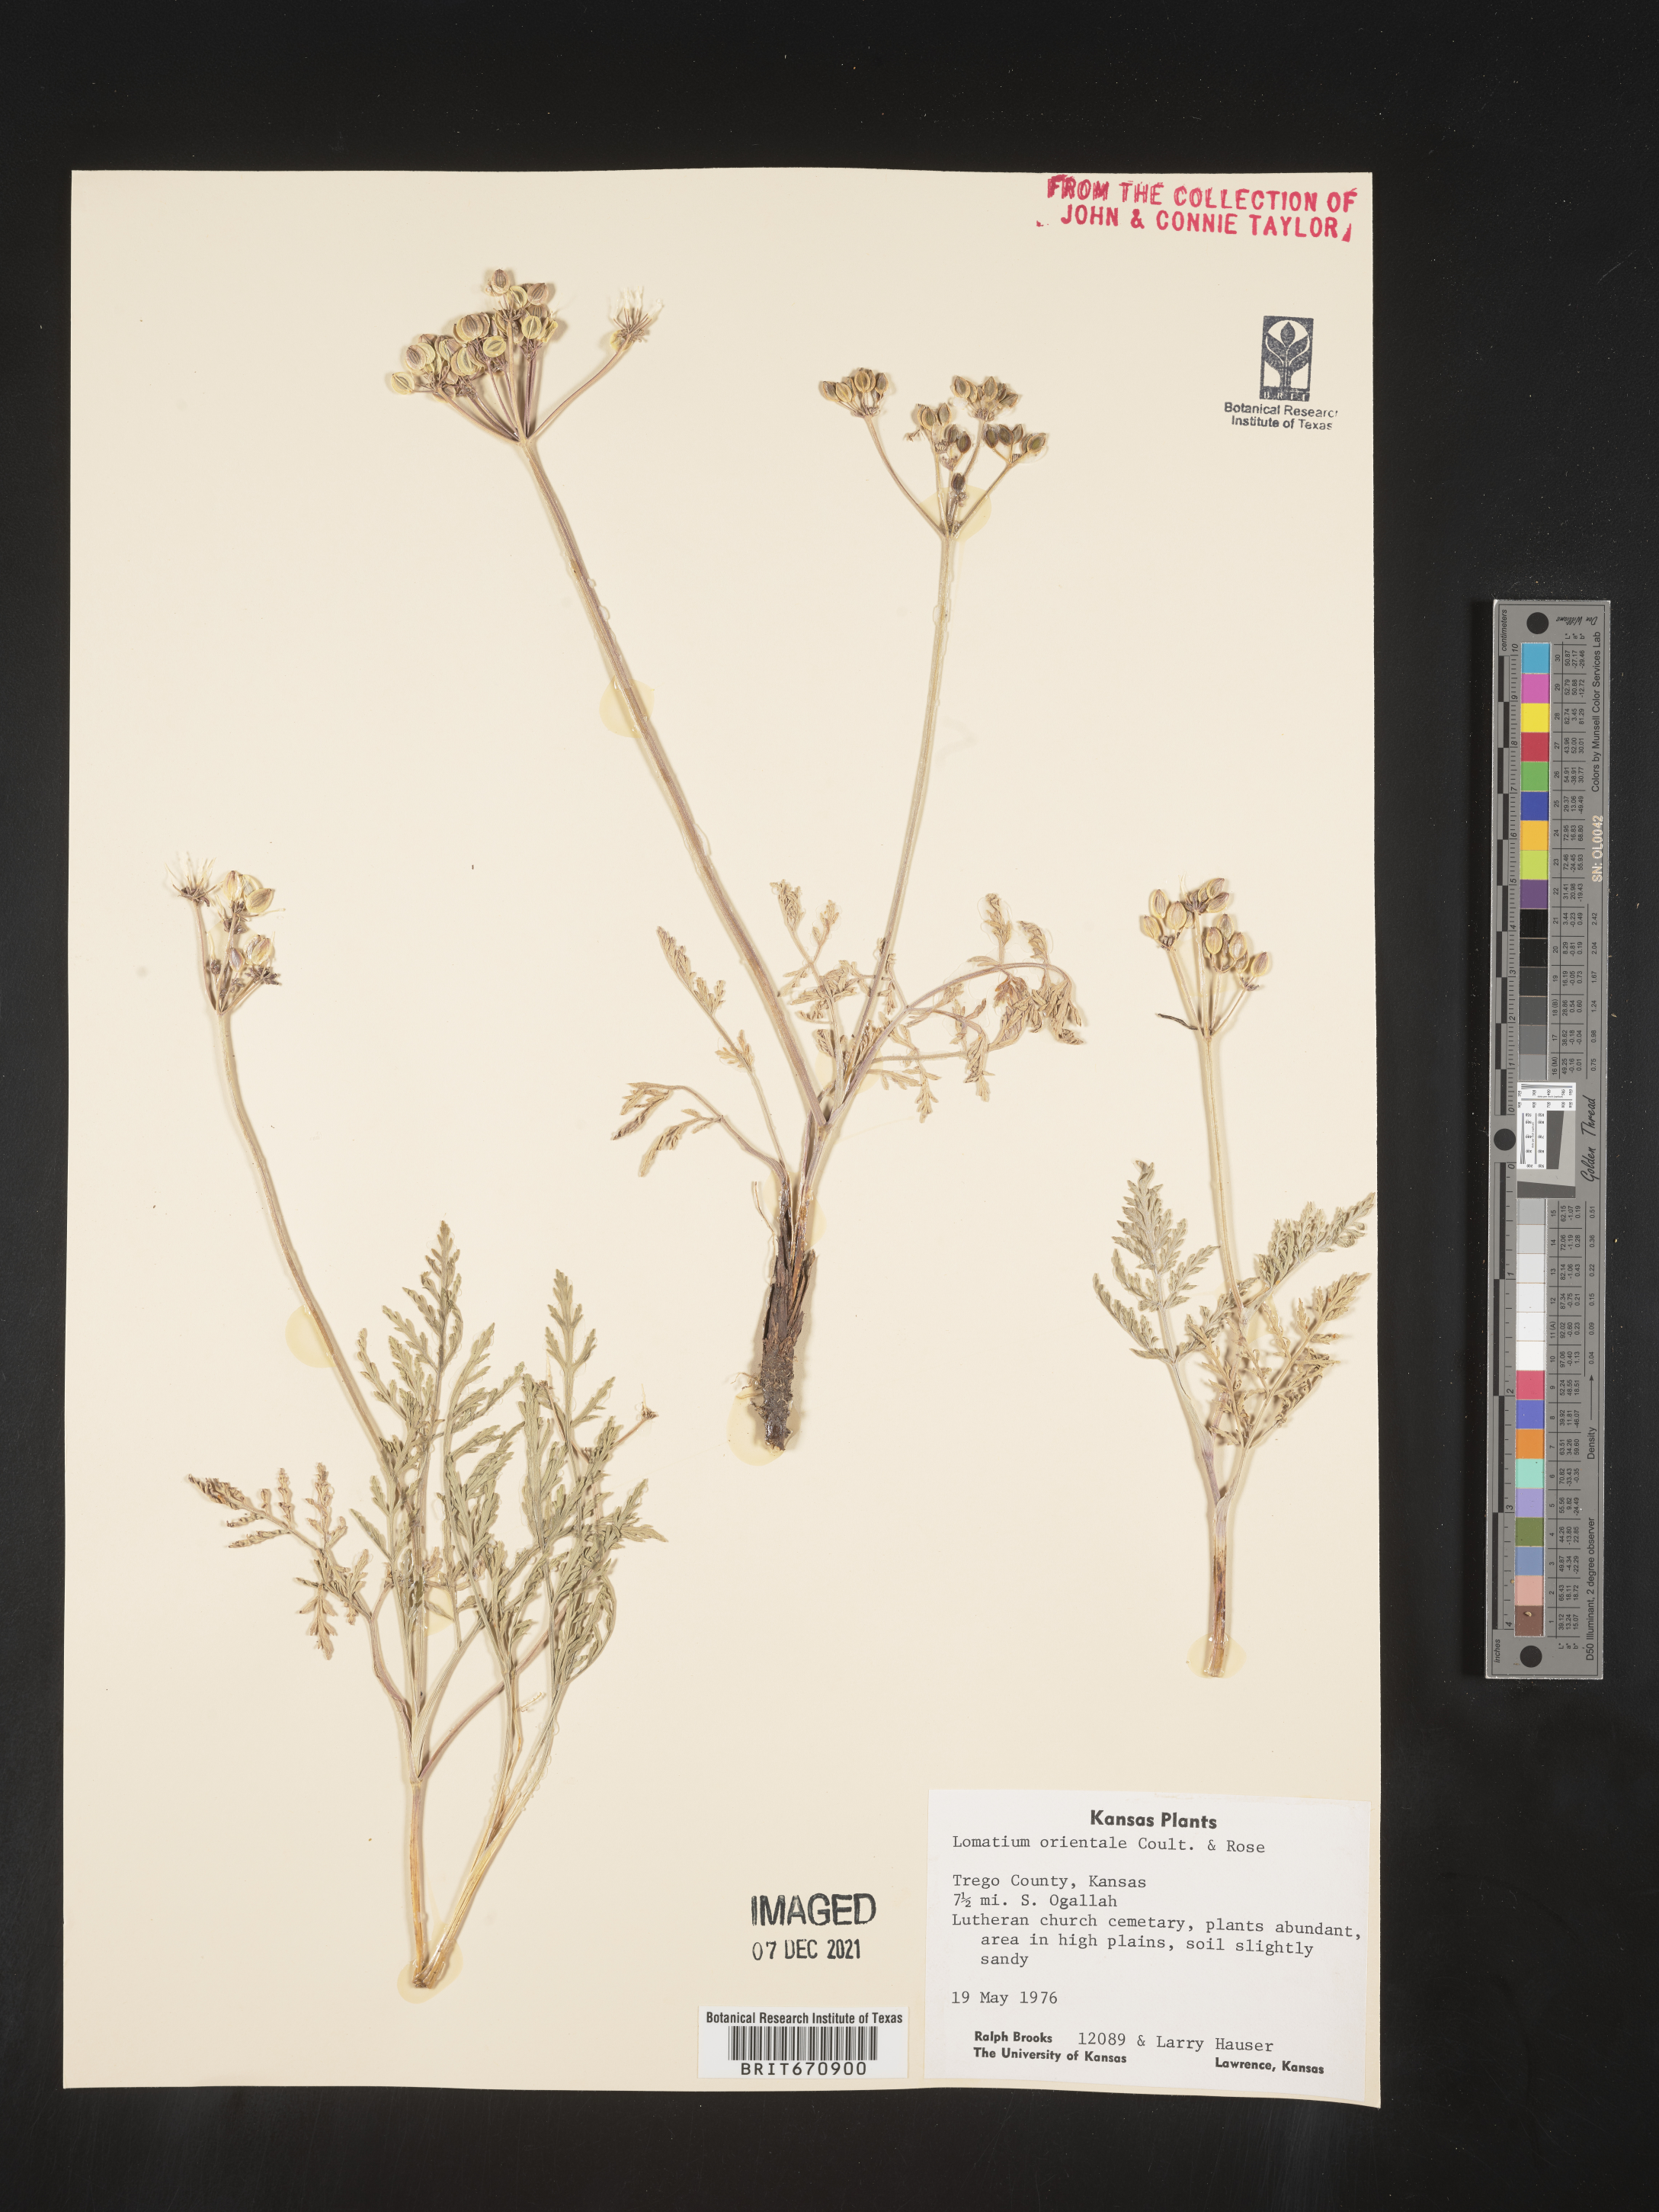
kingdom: Plantae
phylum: Tracheophyta
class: Magnoliopsida
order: Apiales
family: Apiaceae
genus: Lomatium
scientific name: Lomatium
